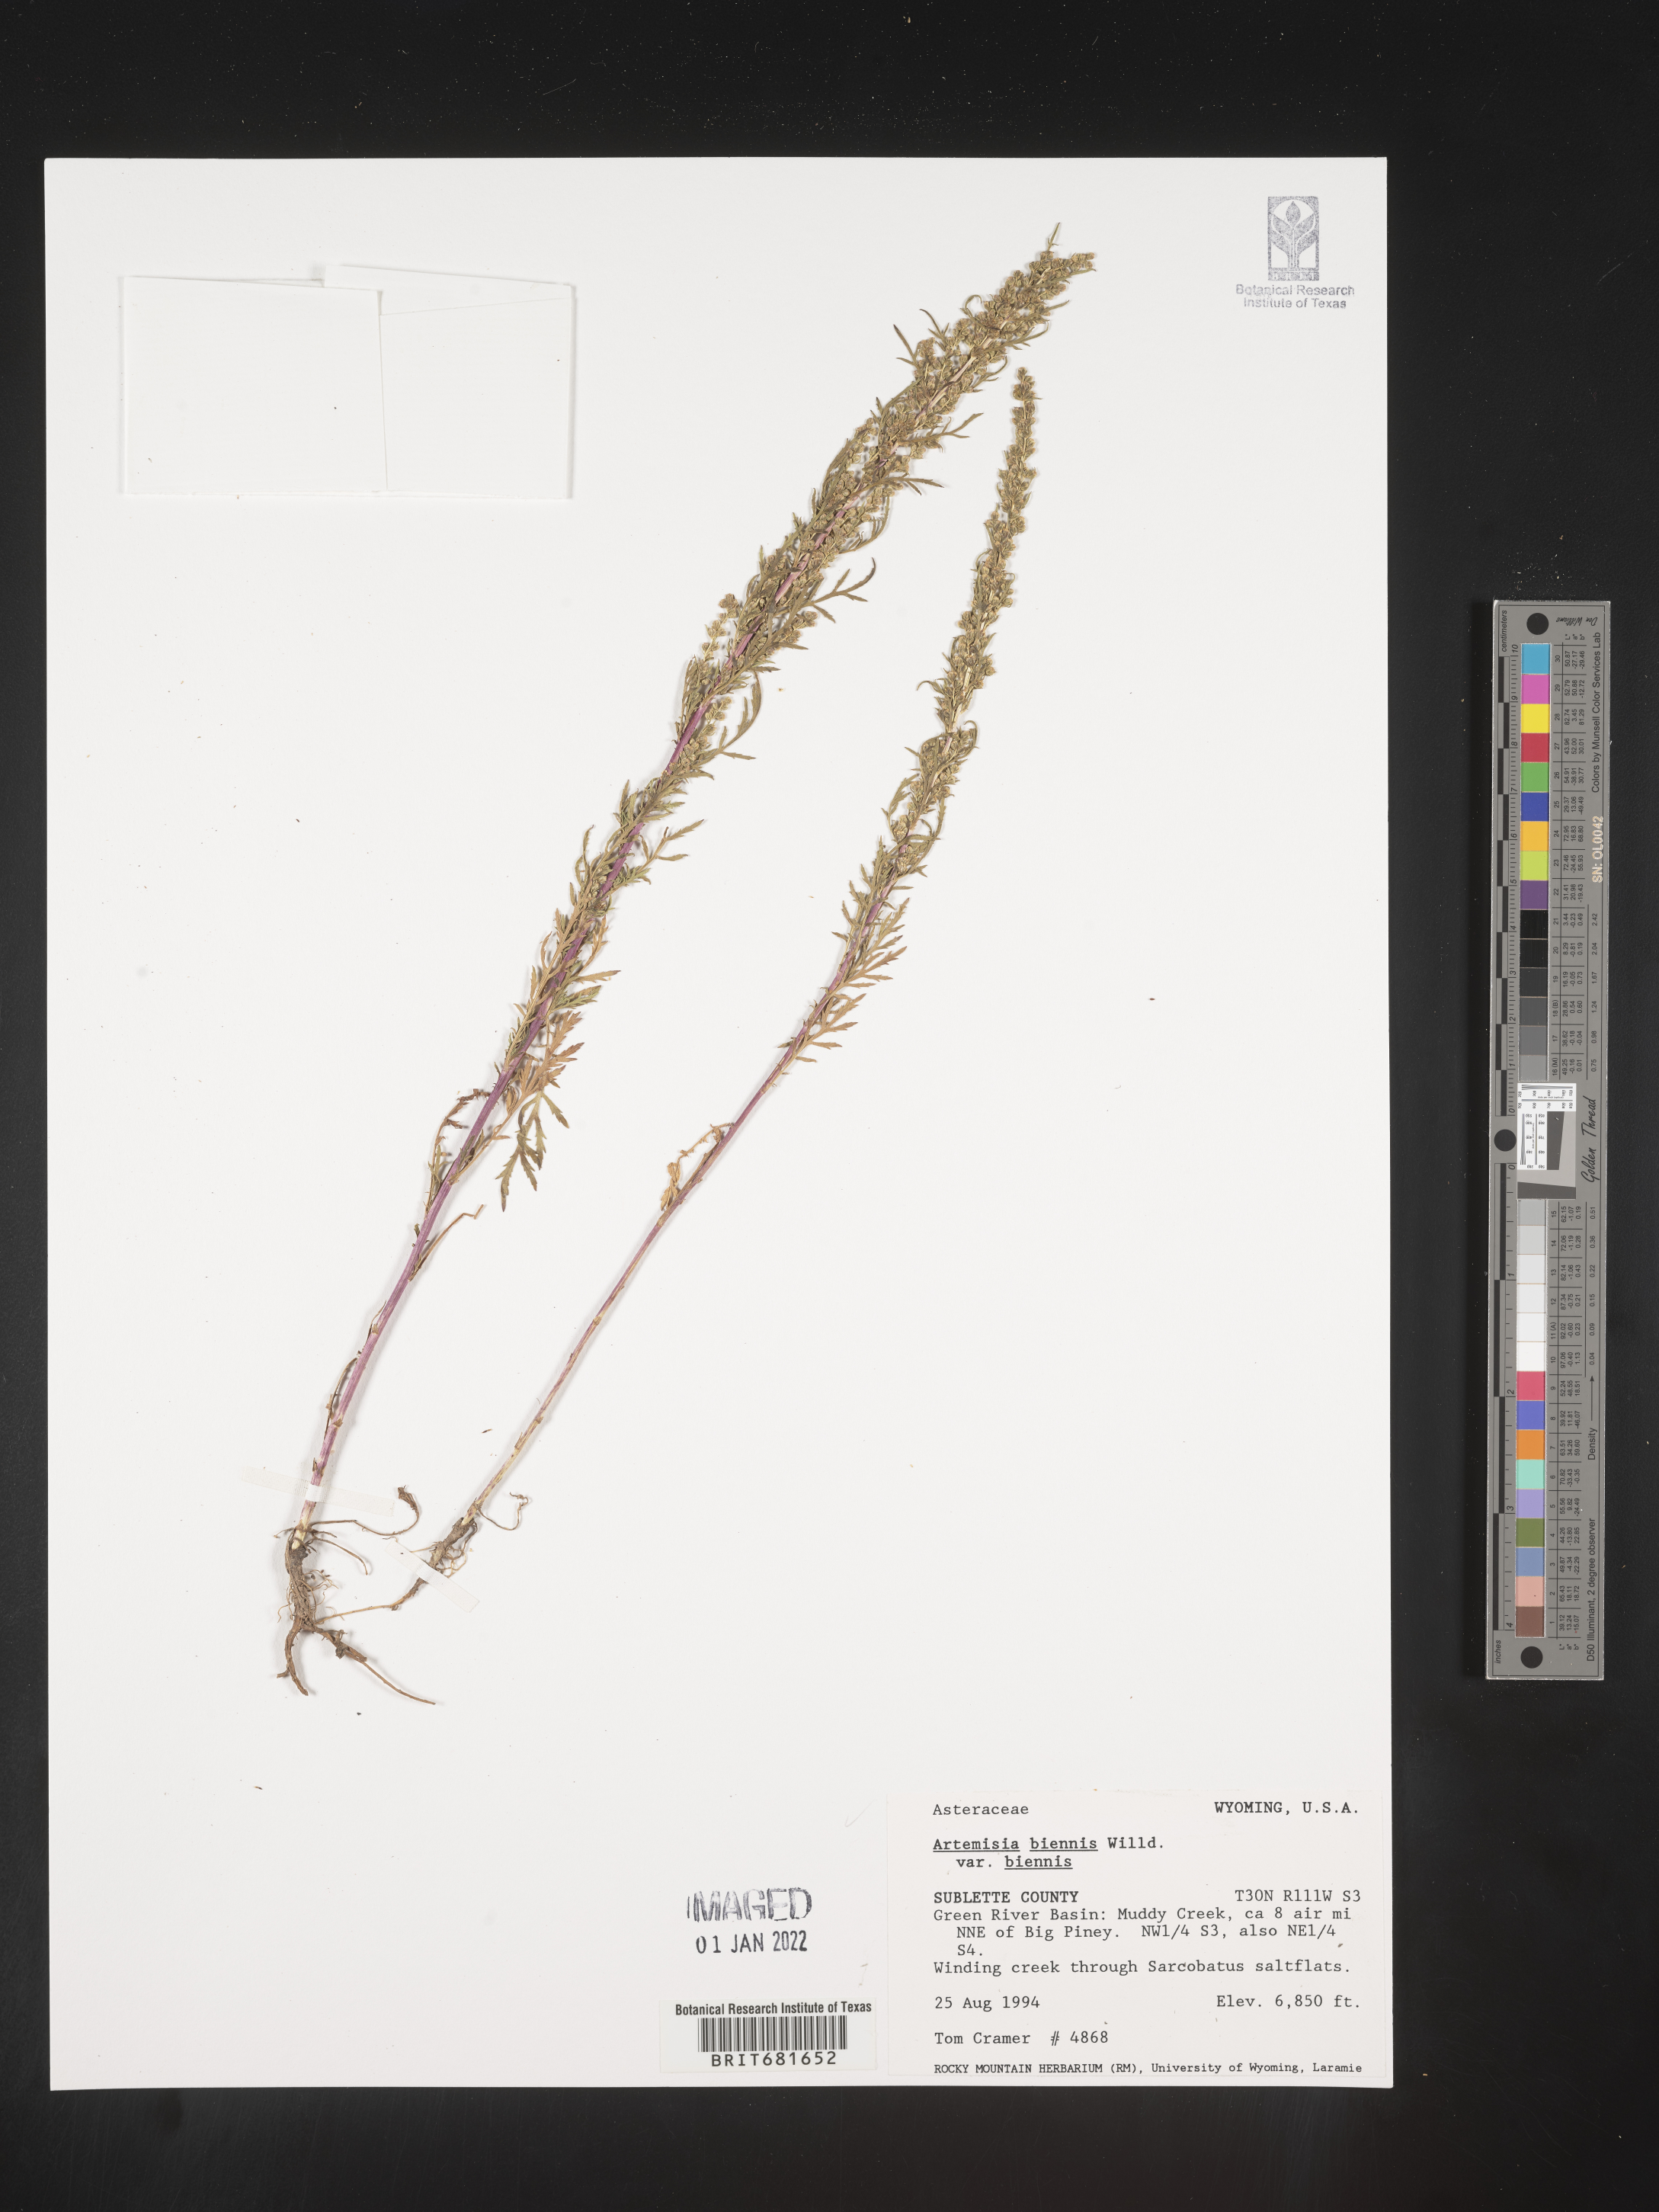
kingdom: Plantae
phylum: Tracheophyta
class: Magnoliopsida
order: Asterales
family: Asteraceae
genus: Artemisia
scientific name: Artemisia biennis
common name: Biennial wormwood
